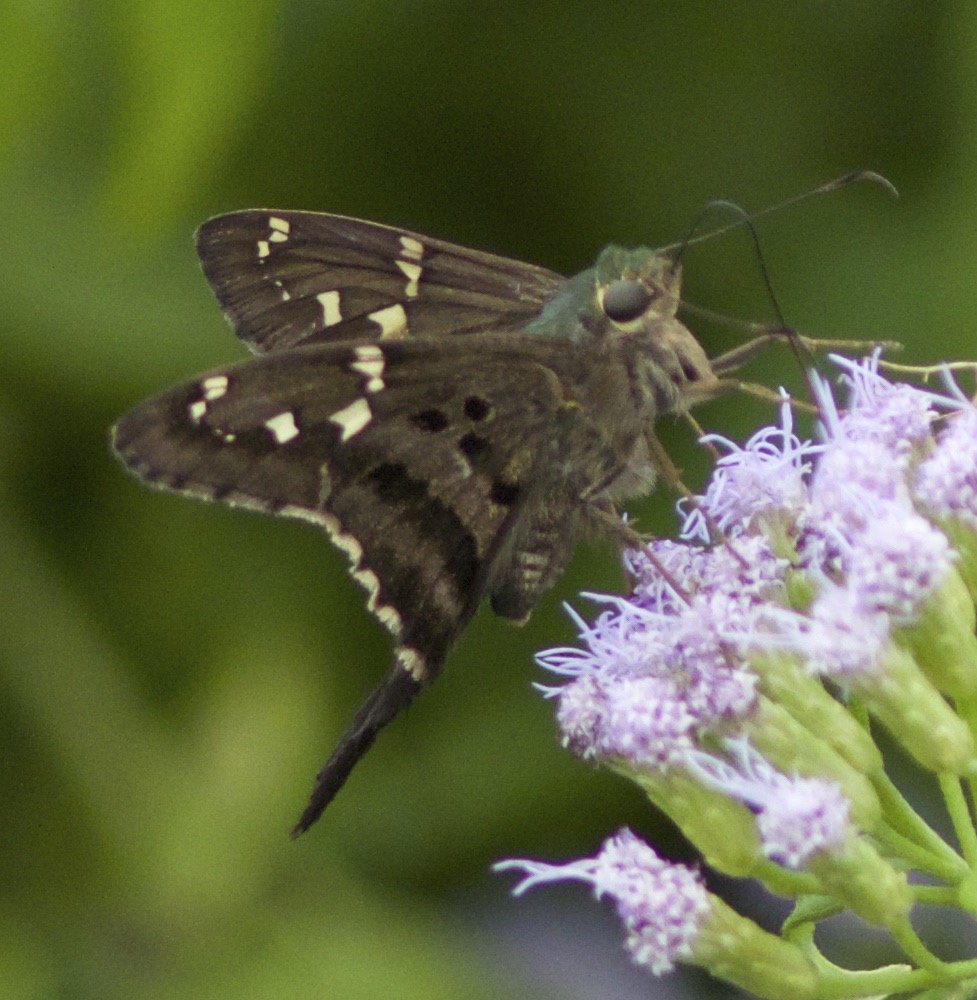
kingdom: Animalia
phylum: Arthropoda
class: Insecta
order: Lepidoptera
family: Hesperiidae
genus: Urbanus
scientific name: Urbanus proteus
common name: Long-tailed Skipper
